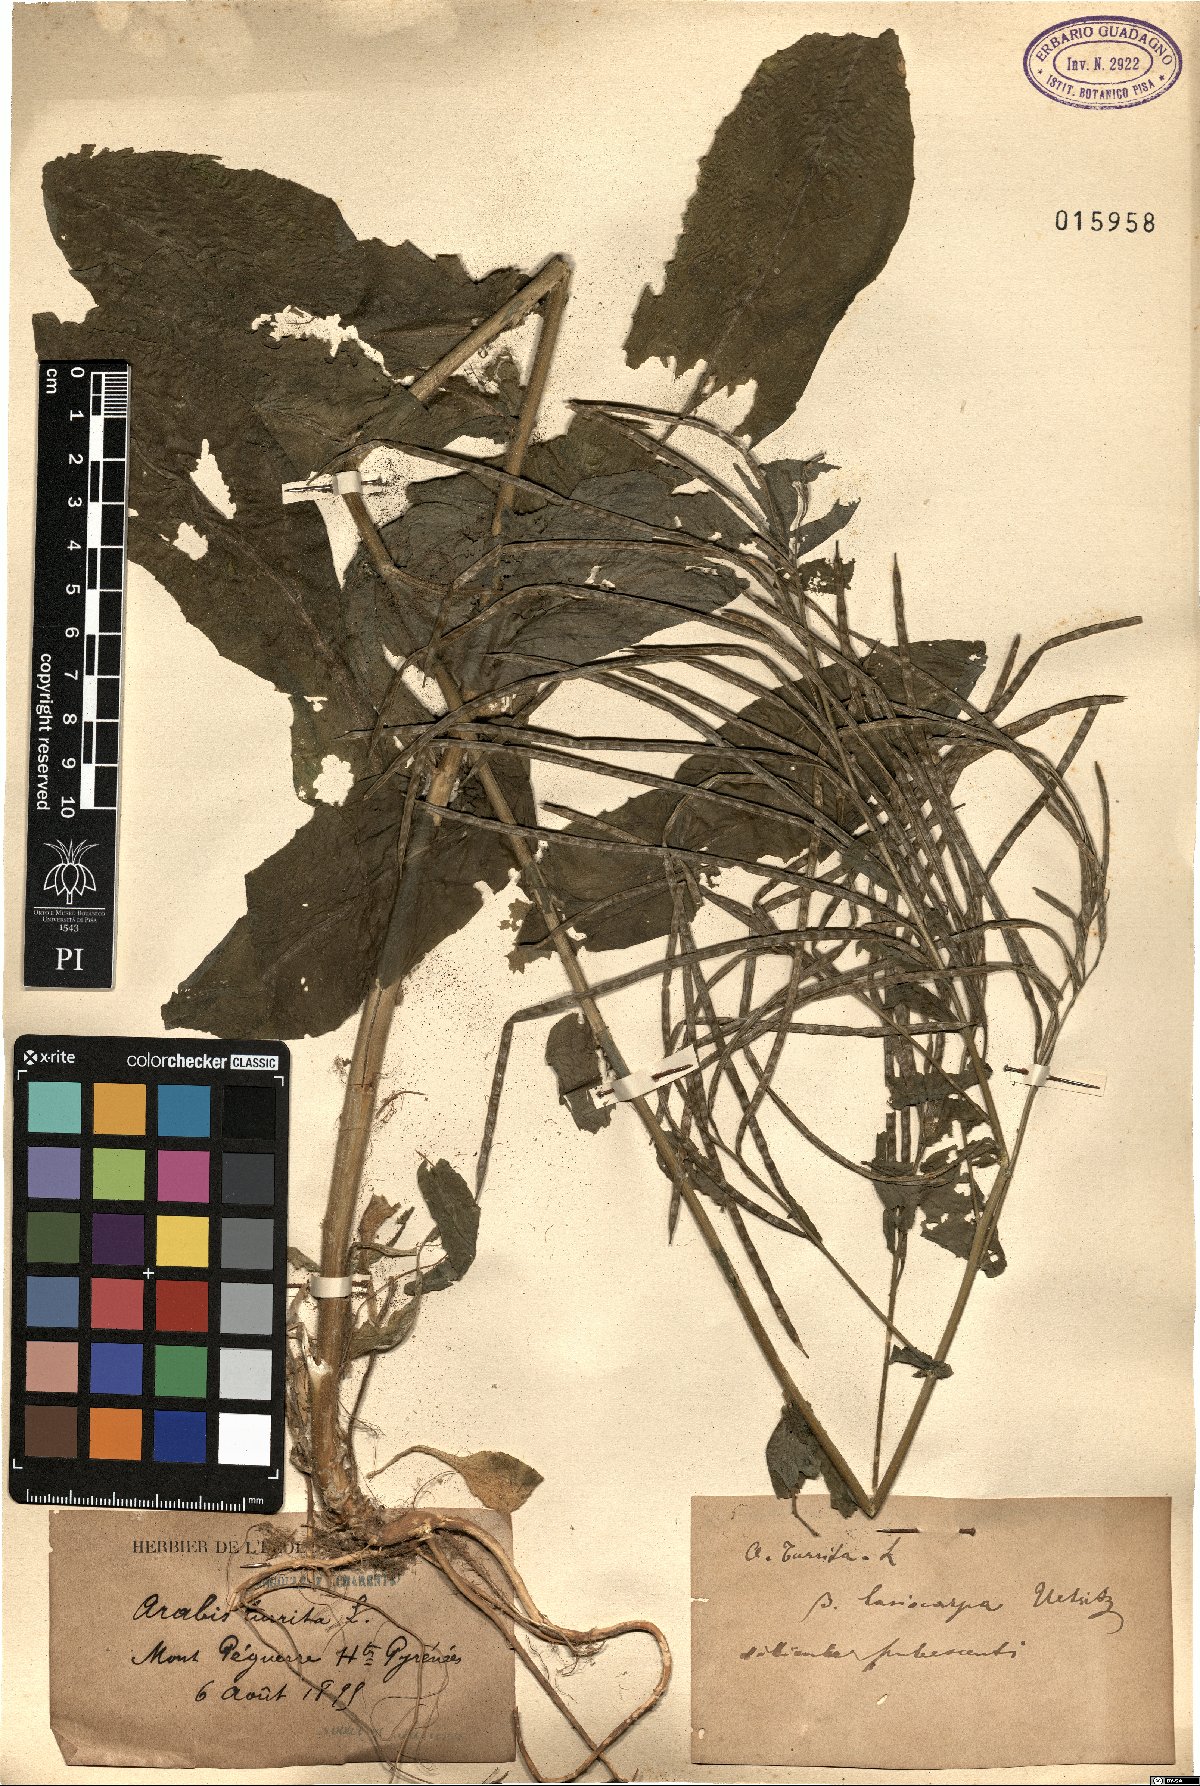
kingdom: Plantae
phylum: Tracheophyta
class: Magnoliopsida
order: Brassicales
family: Brassicaceae
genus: Pseudoturritis
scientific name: Pseudoturritis turrita
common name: Tower cress
